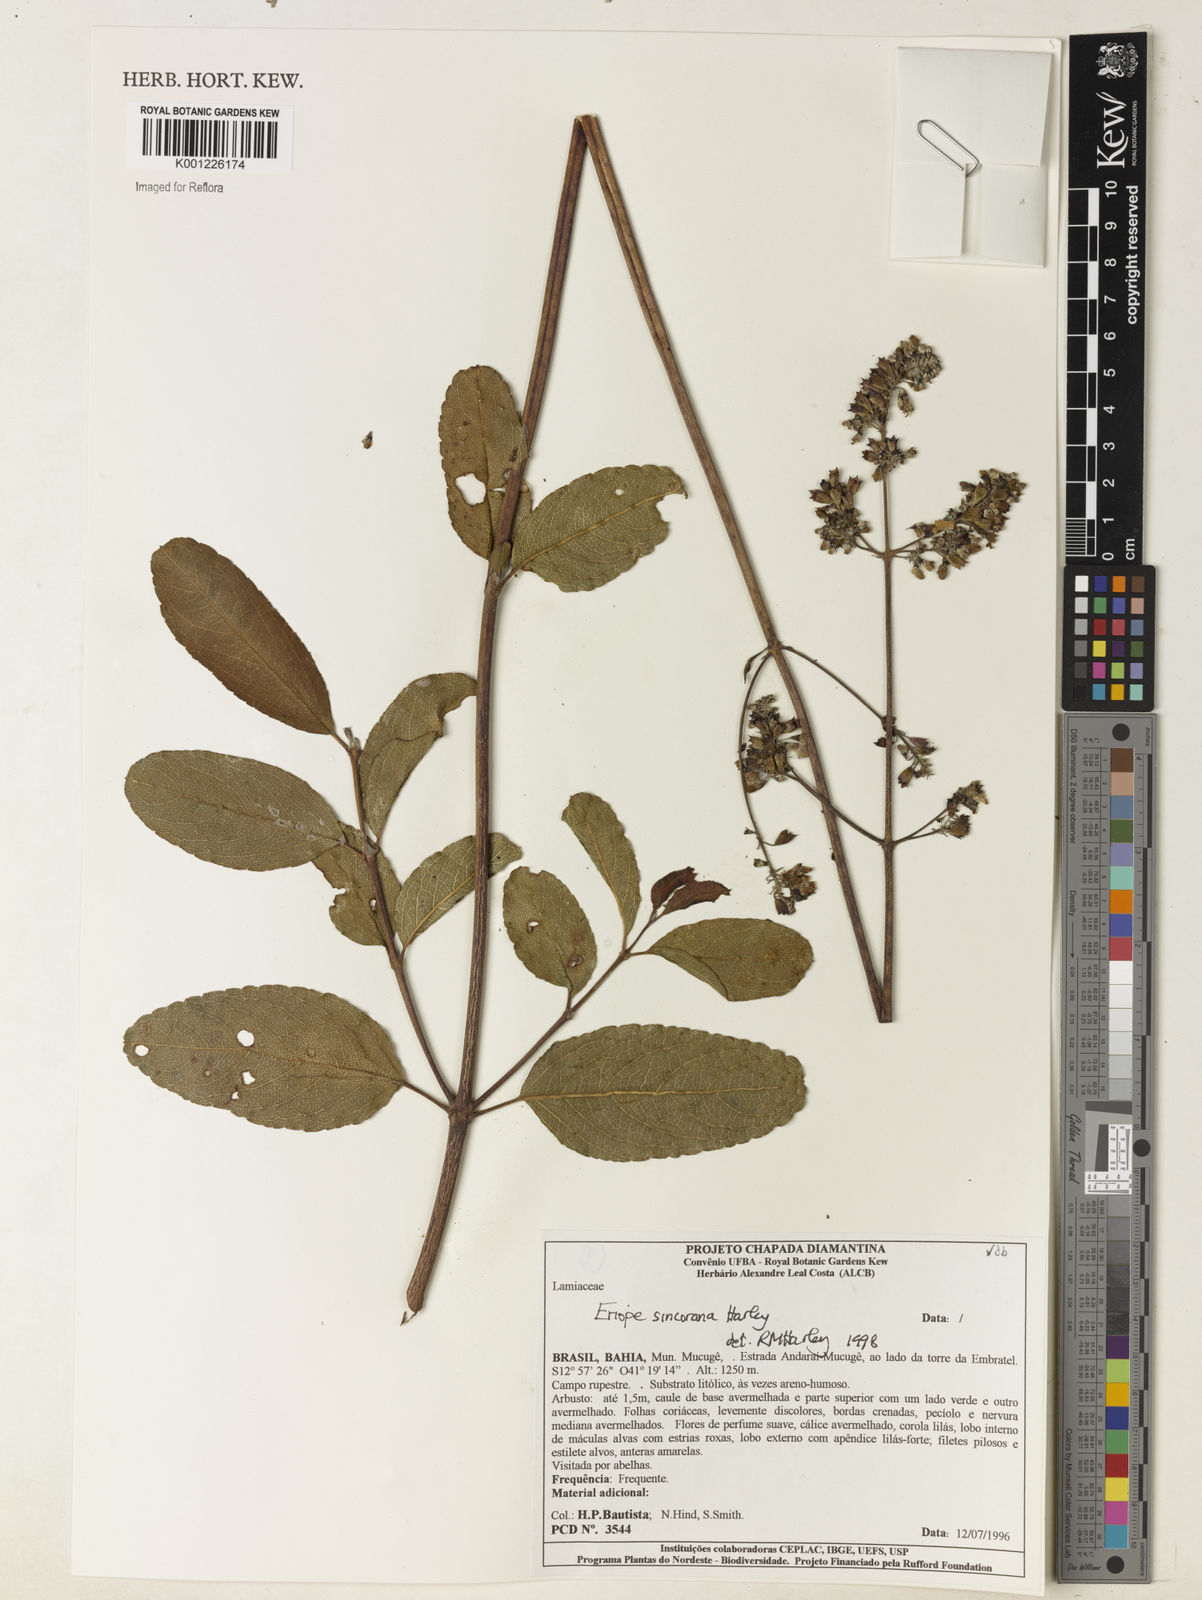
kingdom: Plantae
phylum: Tracheophyta
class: Magnoliopsida
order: Lamiales
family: Lamiaceae
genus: Eriope
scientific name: Eriope sincorana
